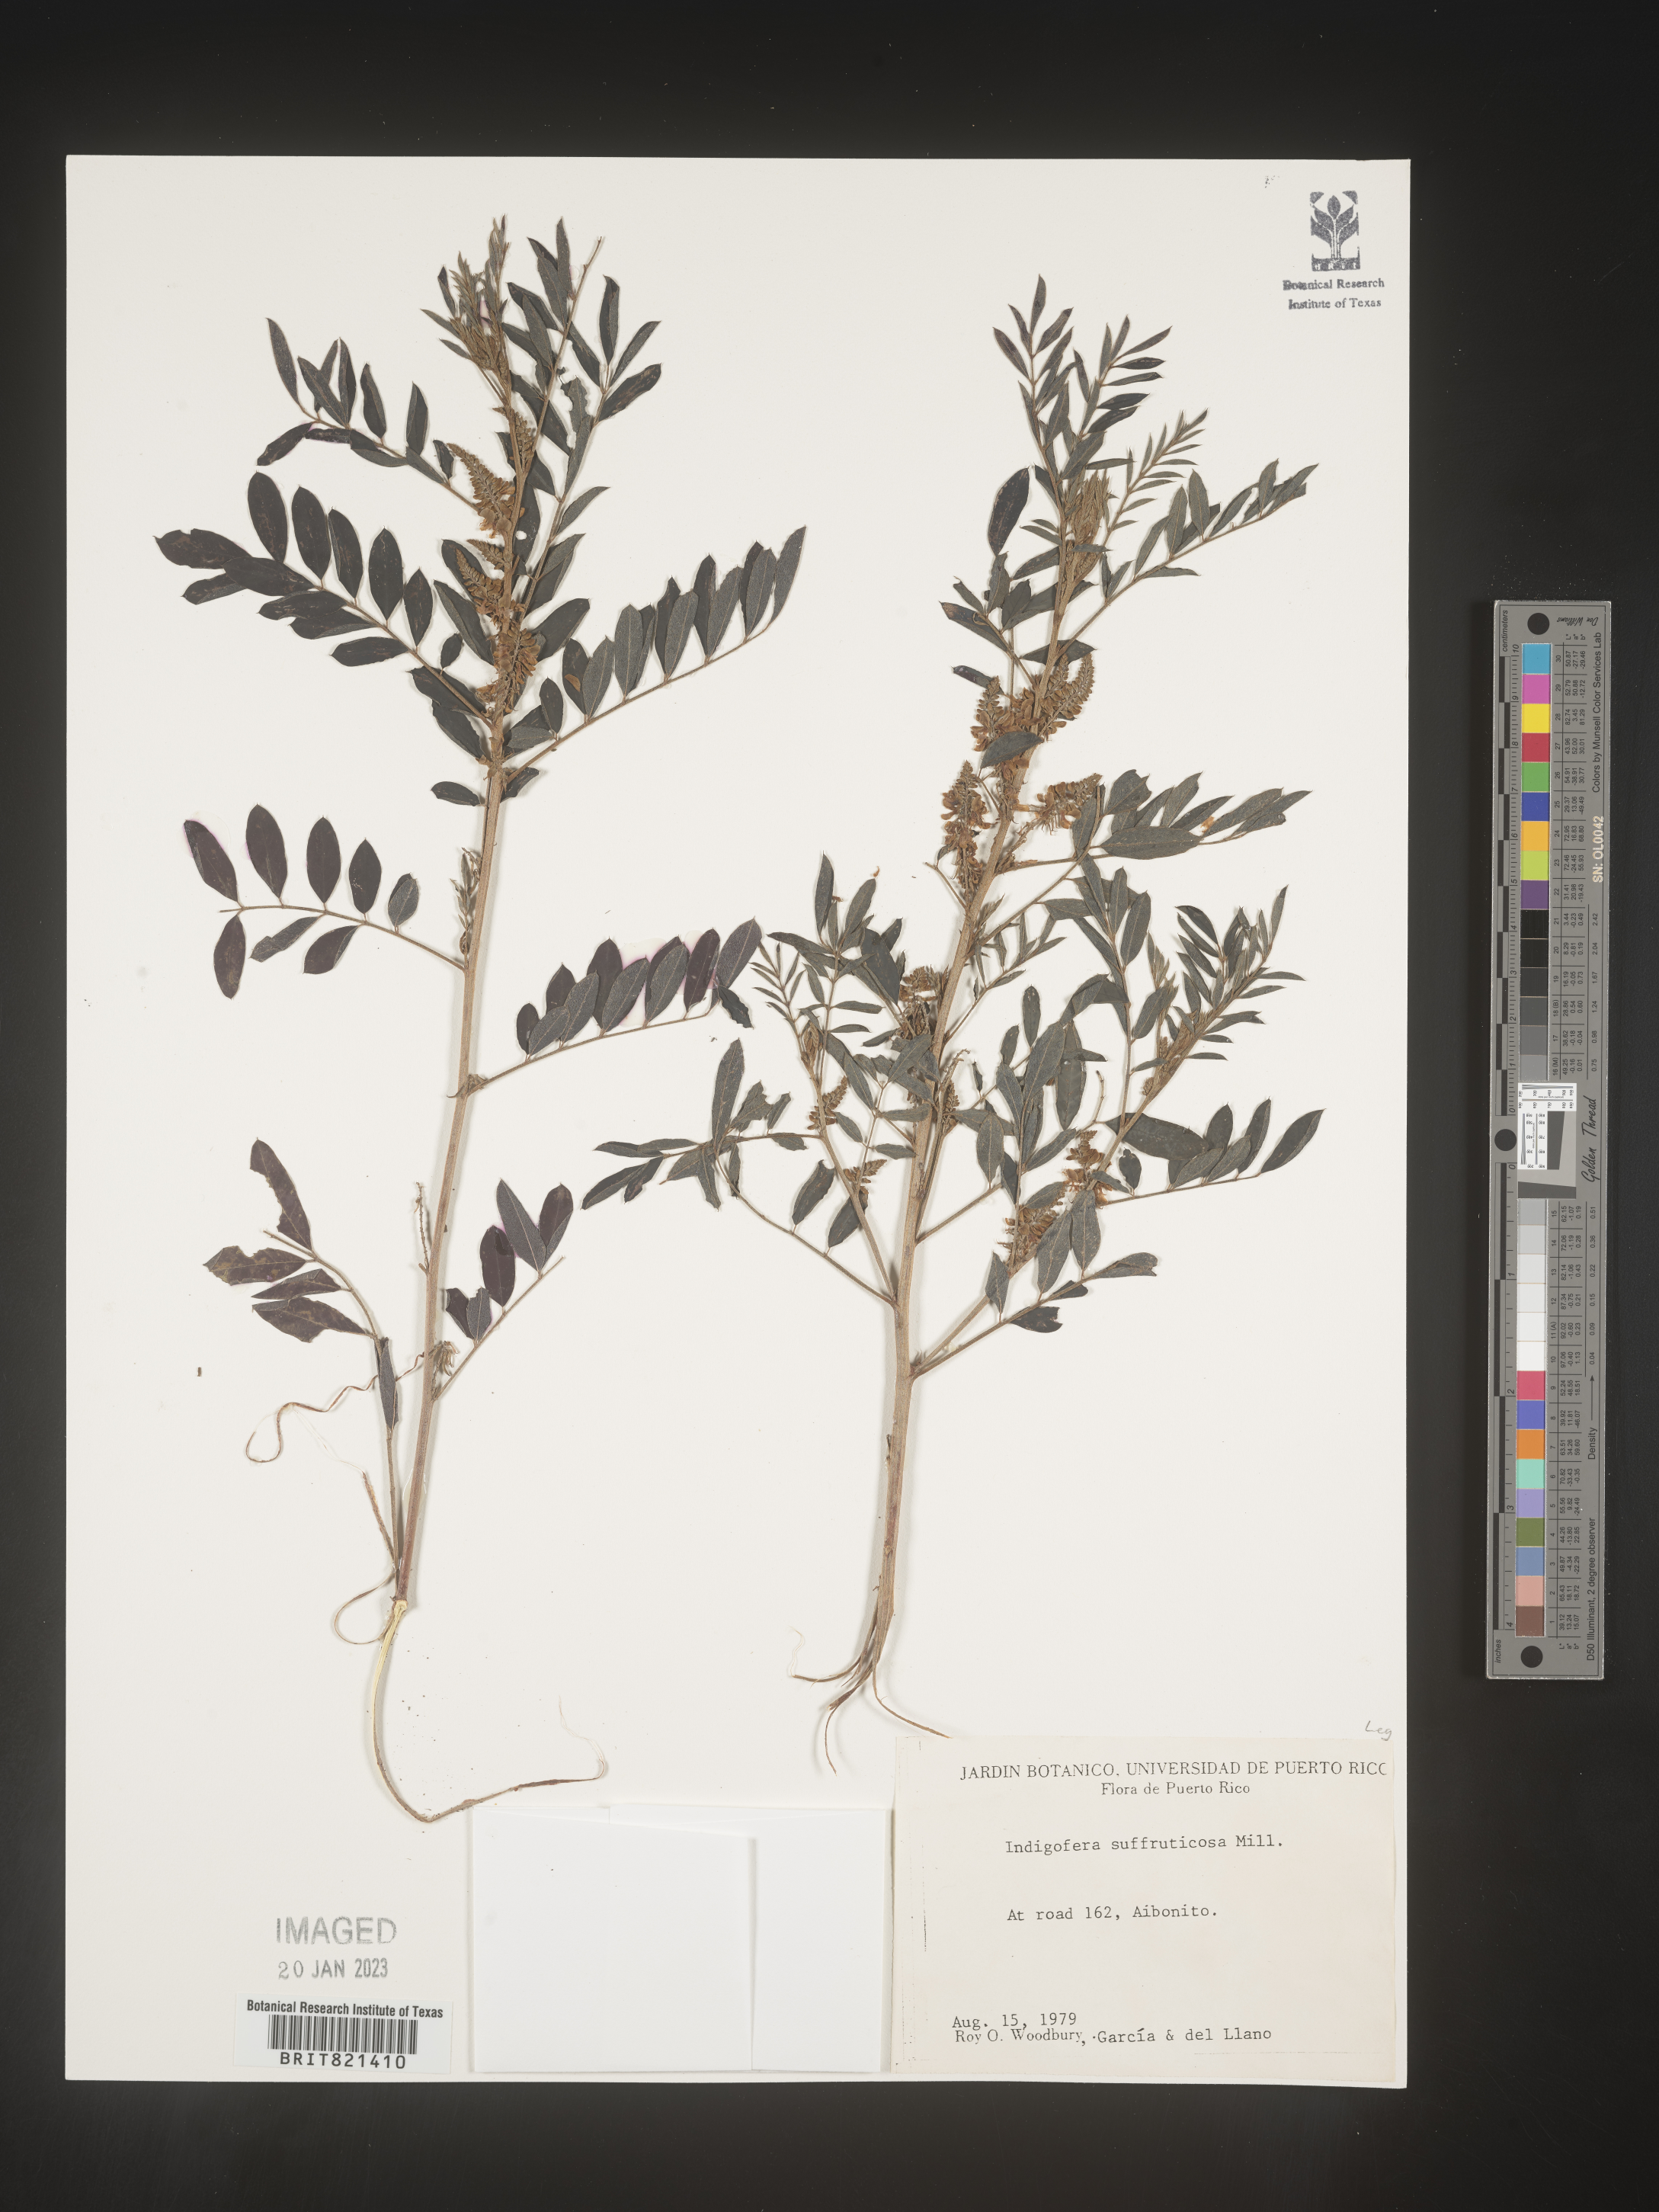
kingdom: Plantae
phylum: Tracheophyta
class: Magnoliopsida
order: Fabales
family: Fabaceae
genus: Indigofera
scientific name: Indigofera
